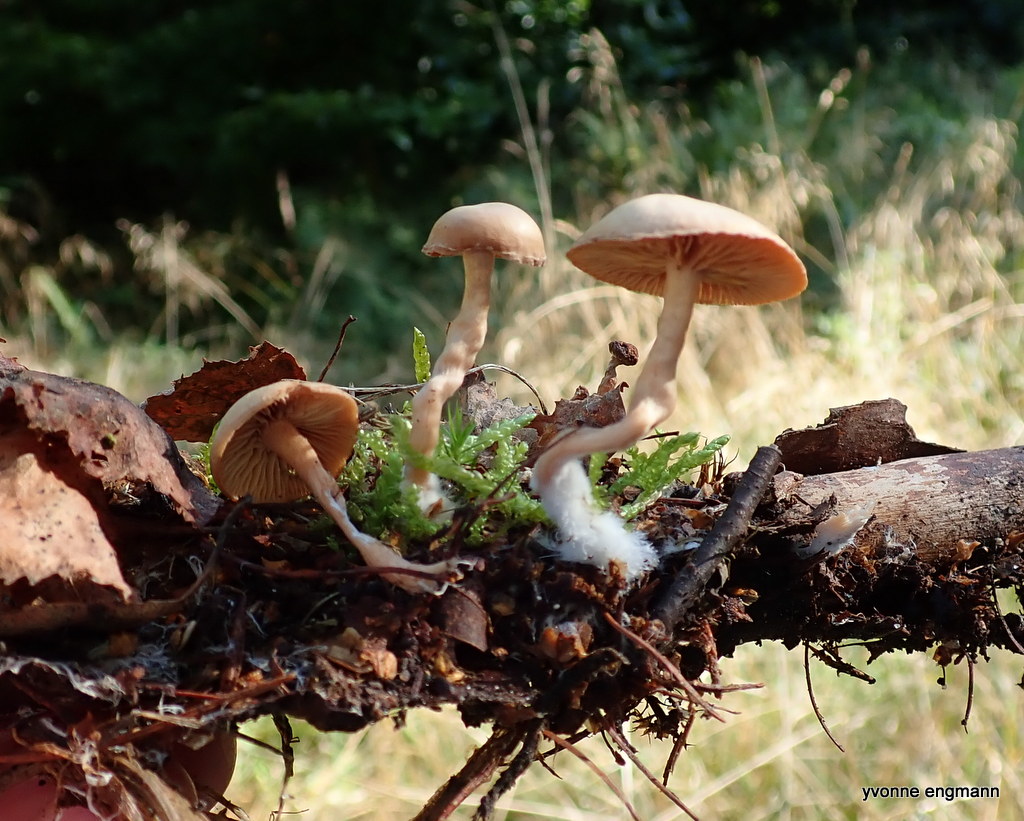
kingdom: Fungi
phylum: Basidiomycota
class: Agaricomycetes
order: Agaricales
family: Tubariaceae
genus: Tubaria
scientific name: Tubaria furfuracea
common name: kliddet fnughat
